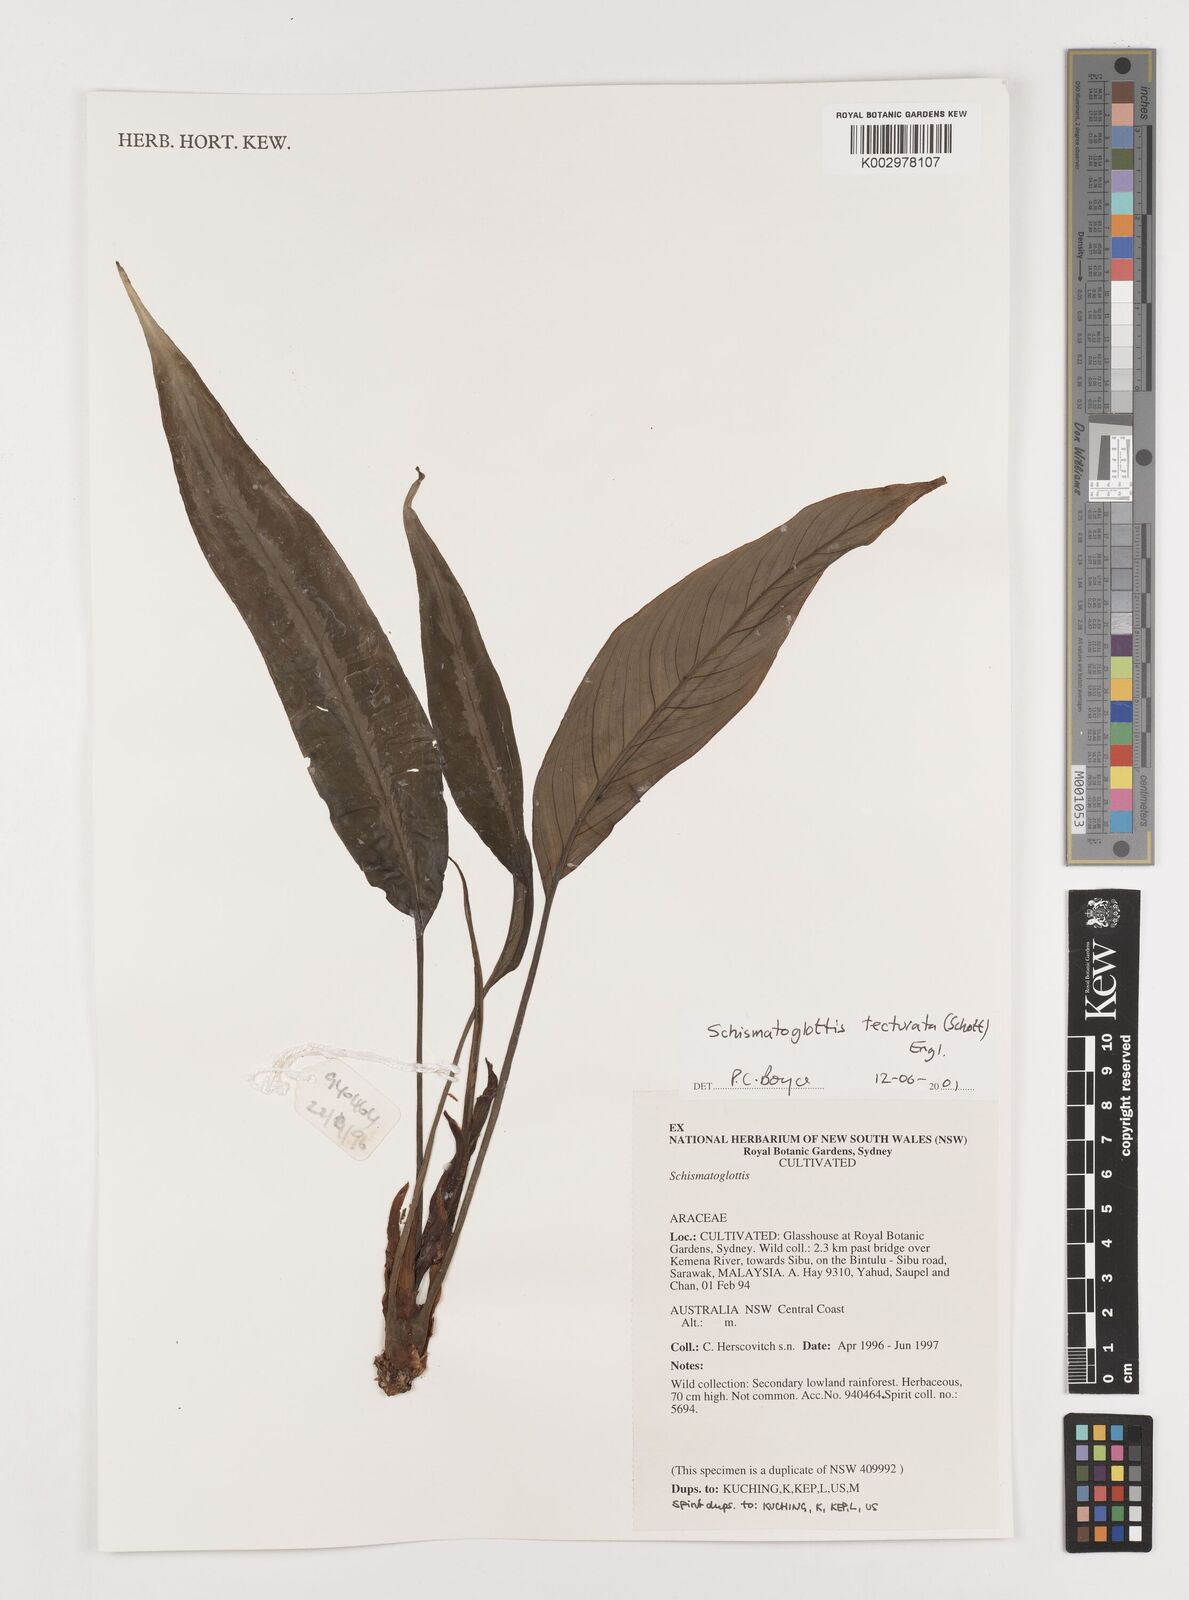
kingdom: Plantae
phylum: Tracheophyta
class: Liliopsida
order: Zingiberales
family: Costaceae
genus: Colobogynium
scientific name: Colobogynium variegatum
